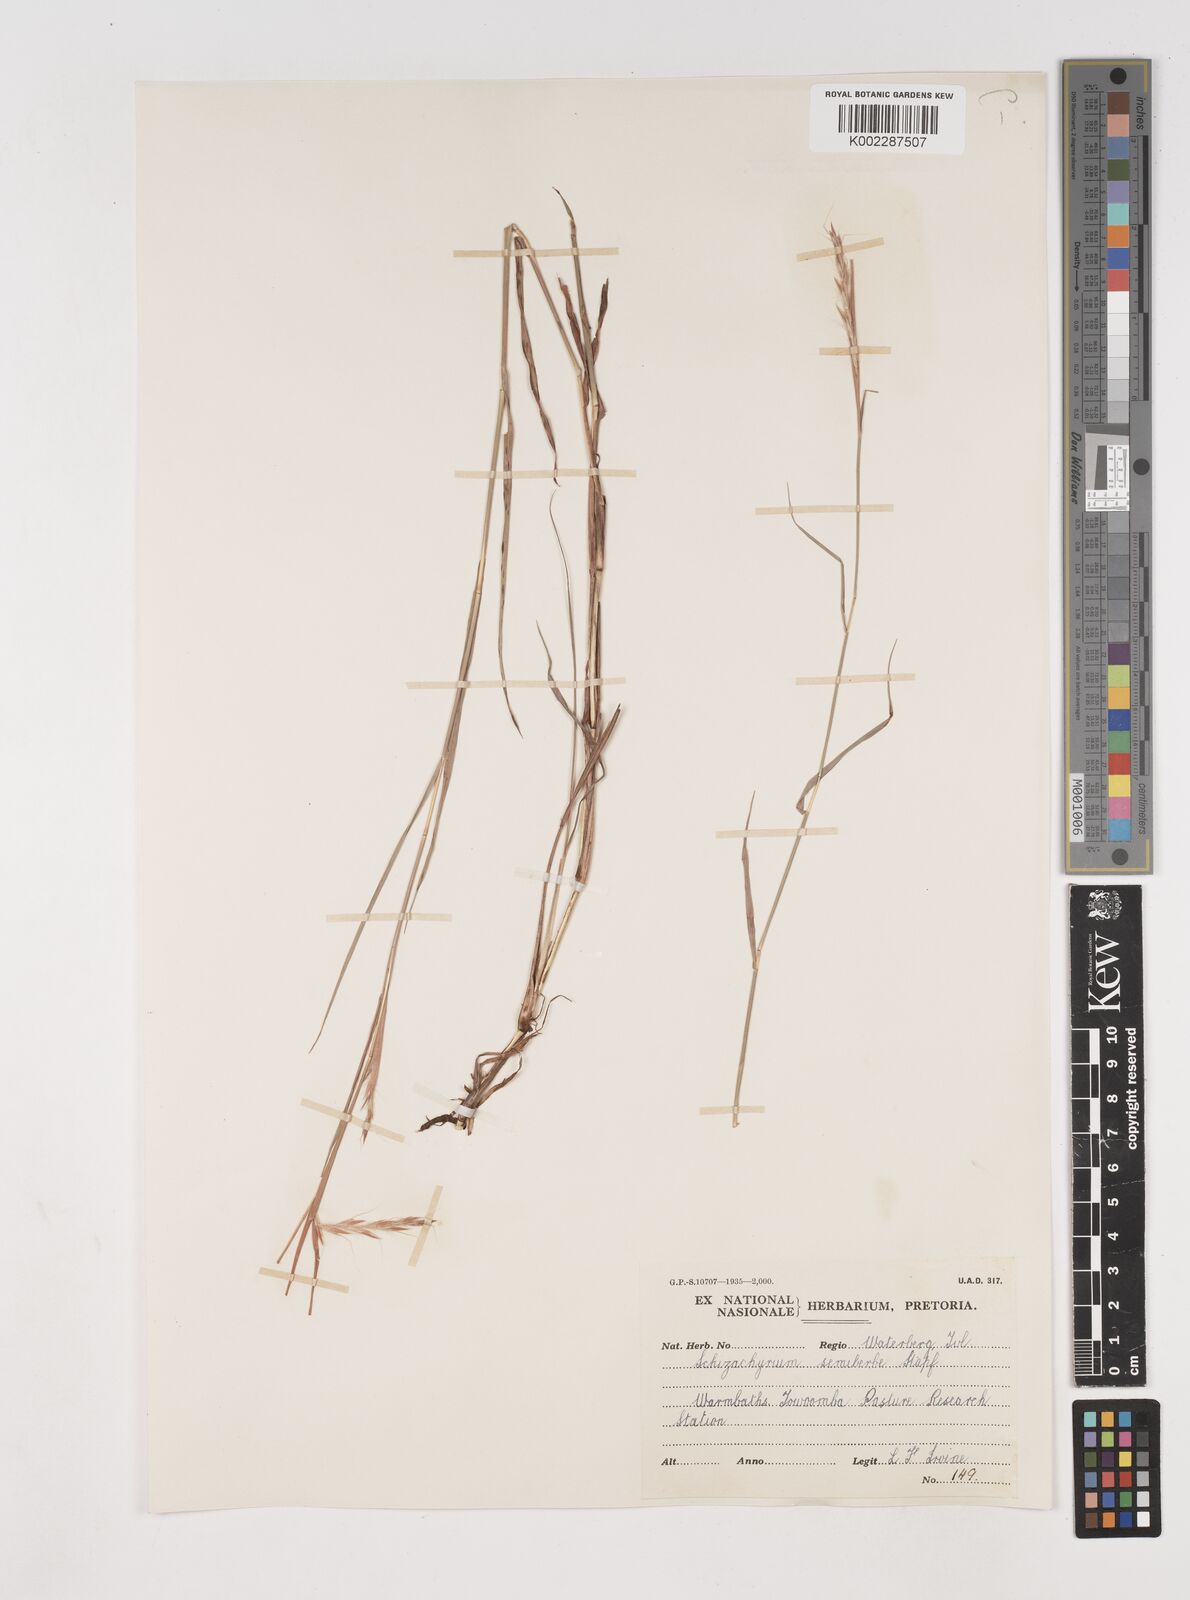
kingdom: Plantae
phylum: Tracheophyta
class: Liliopsida
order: Poales
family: Poaceae
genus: Schizachyrium
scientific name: Schizachyrium jeffreysii
